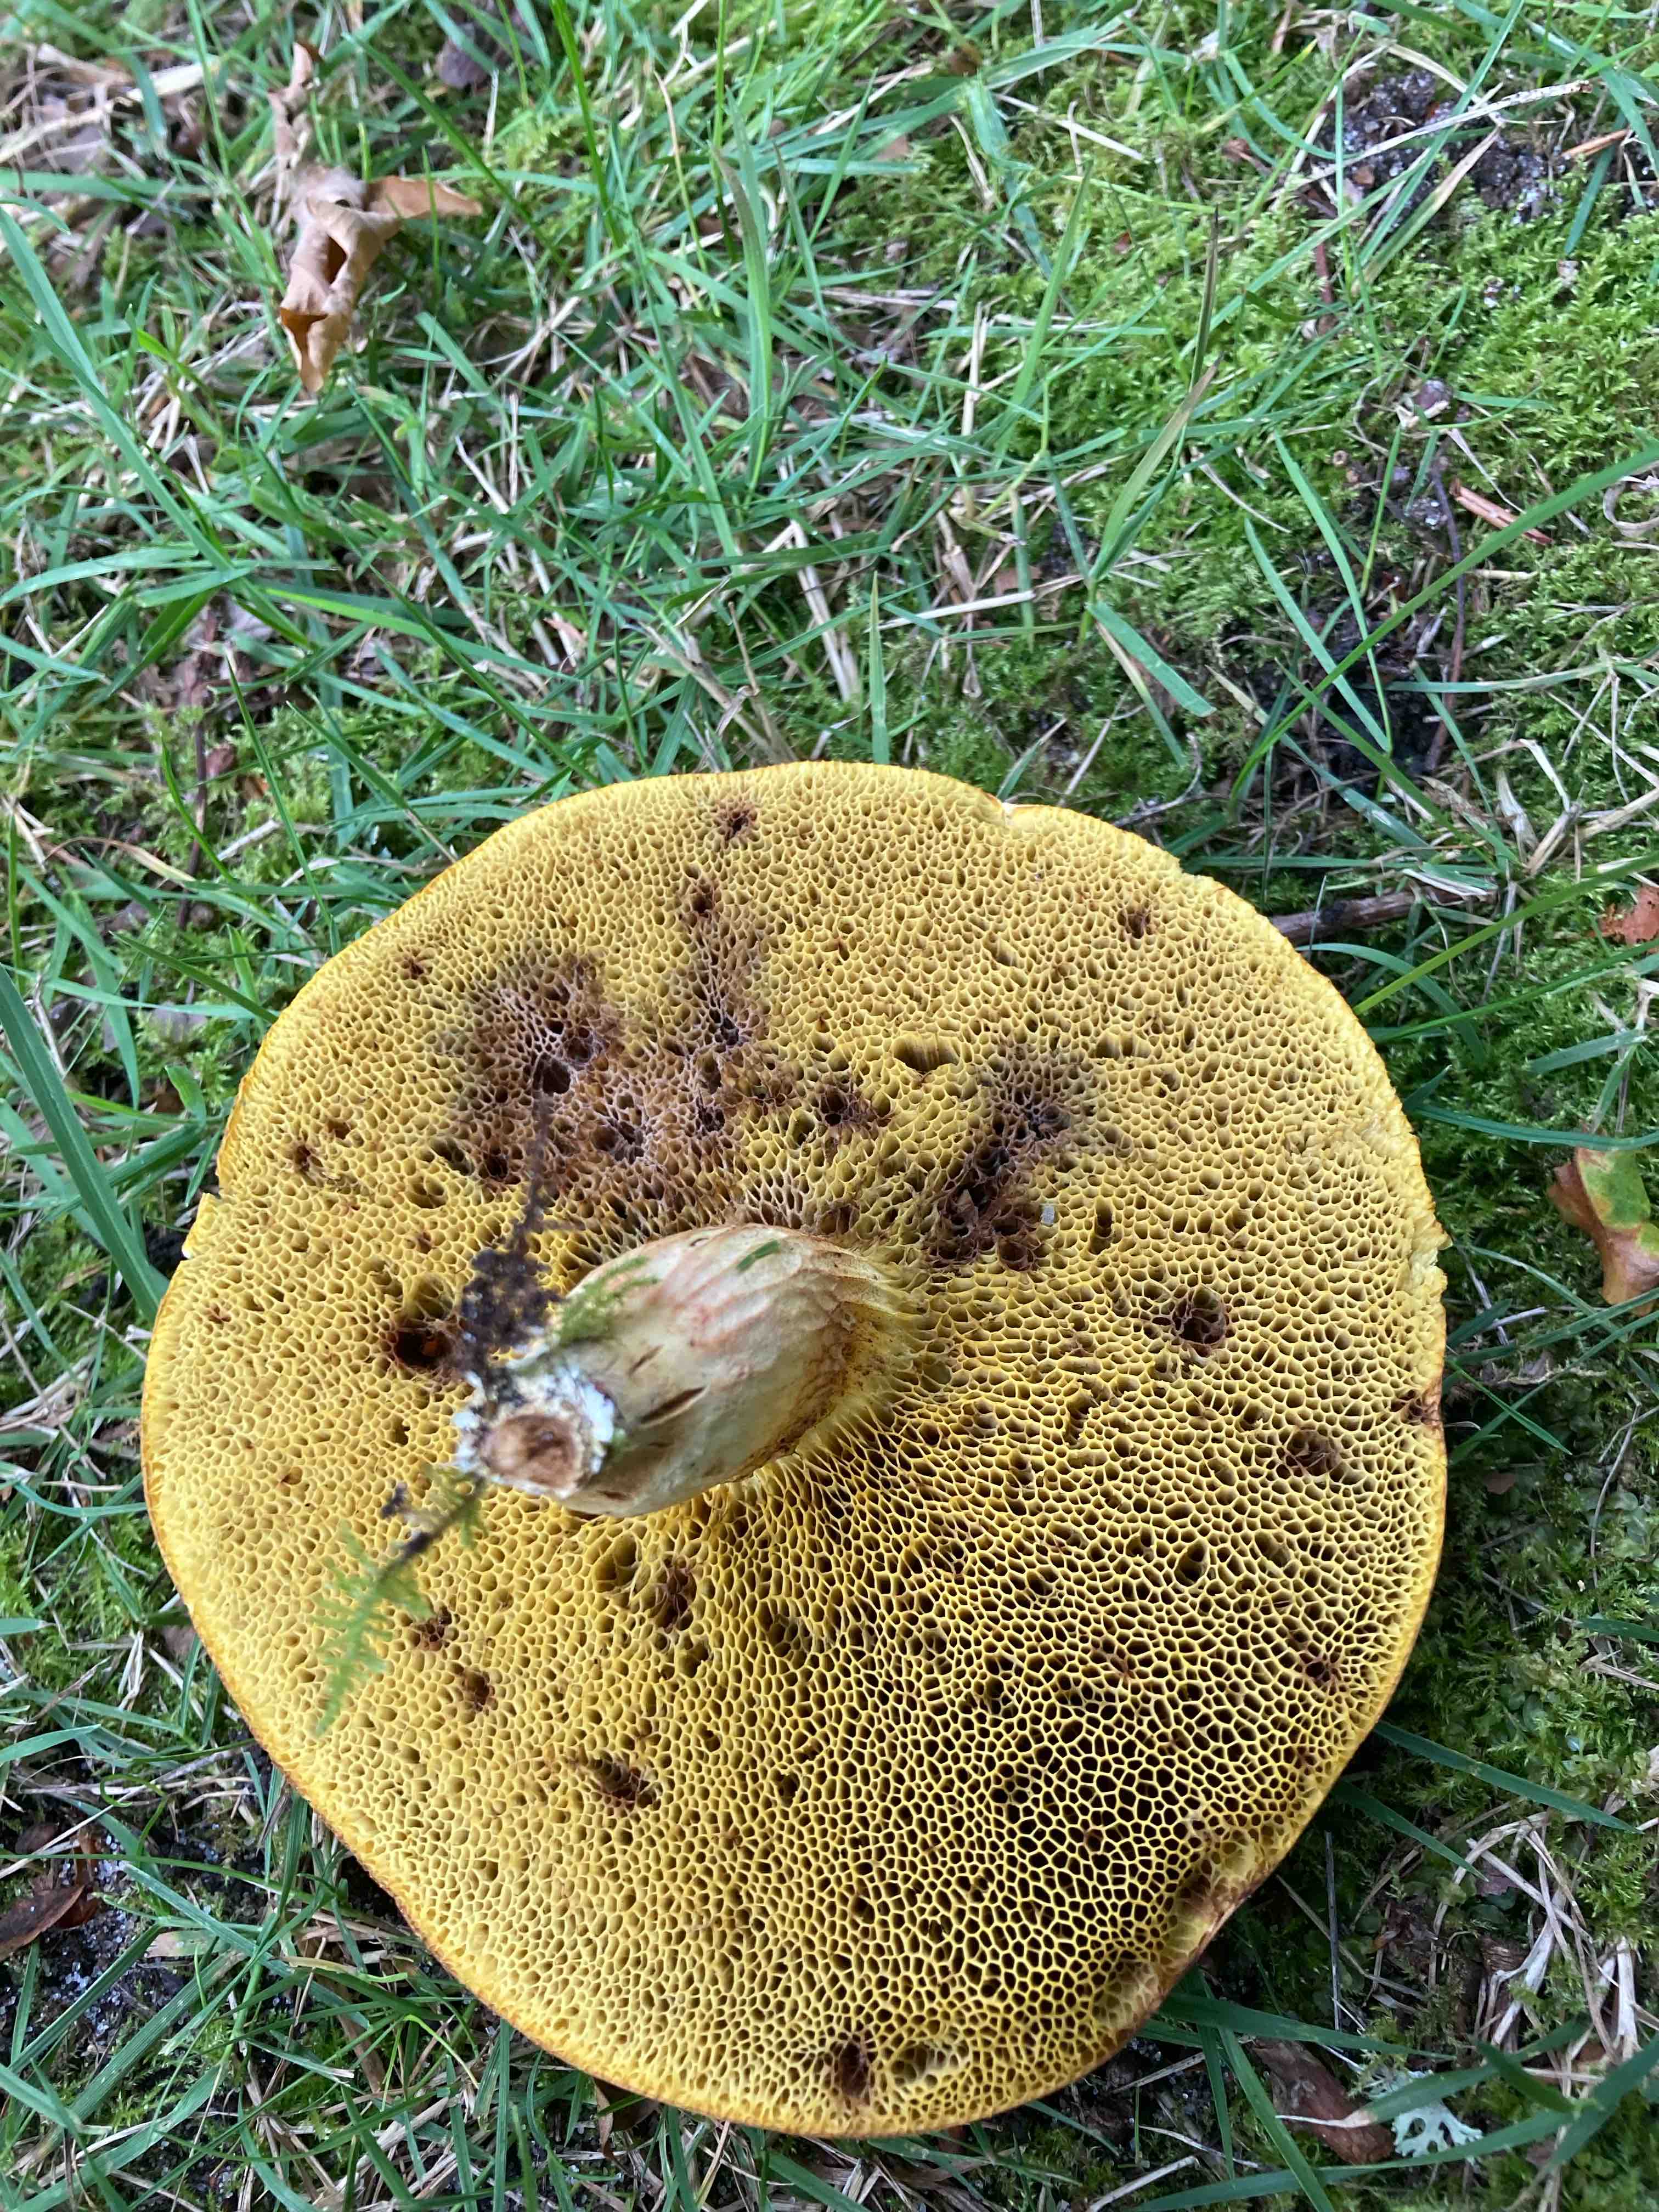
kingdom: Fungi
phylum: Basidiomycota
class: Agaricomycetes
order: Boletales
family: Boletaceae
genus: Xerocomus
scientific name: Xerocomus
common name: filtrørhat
